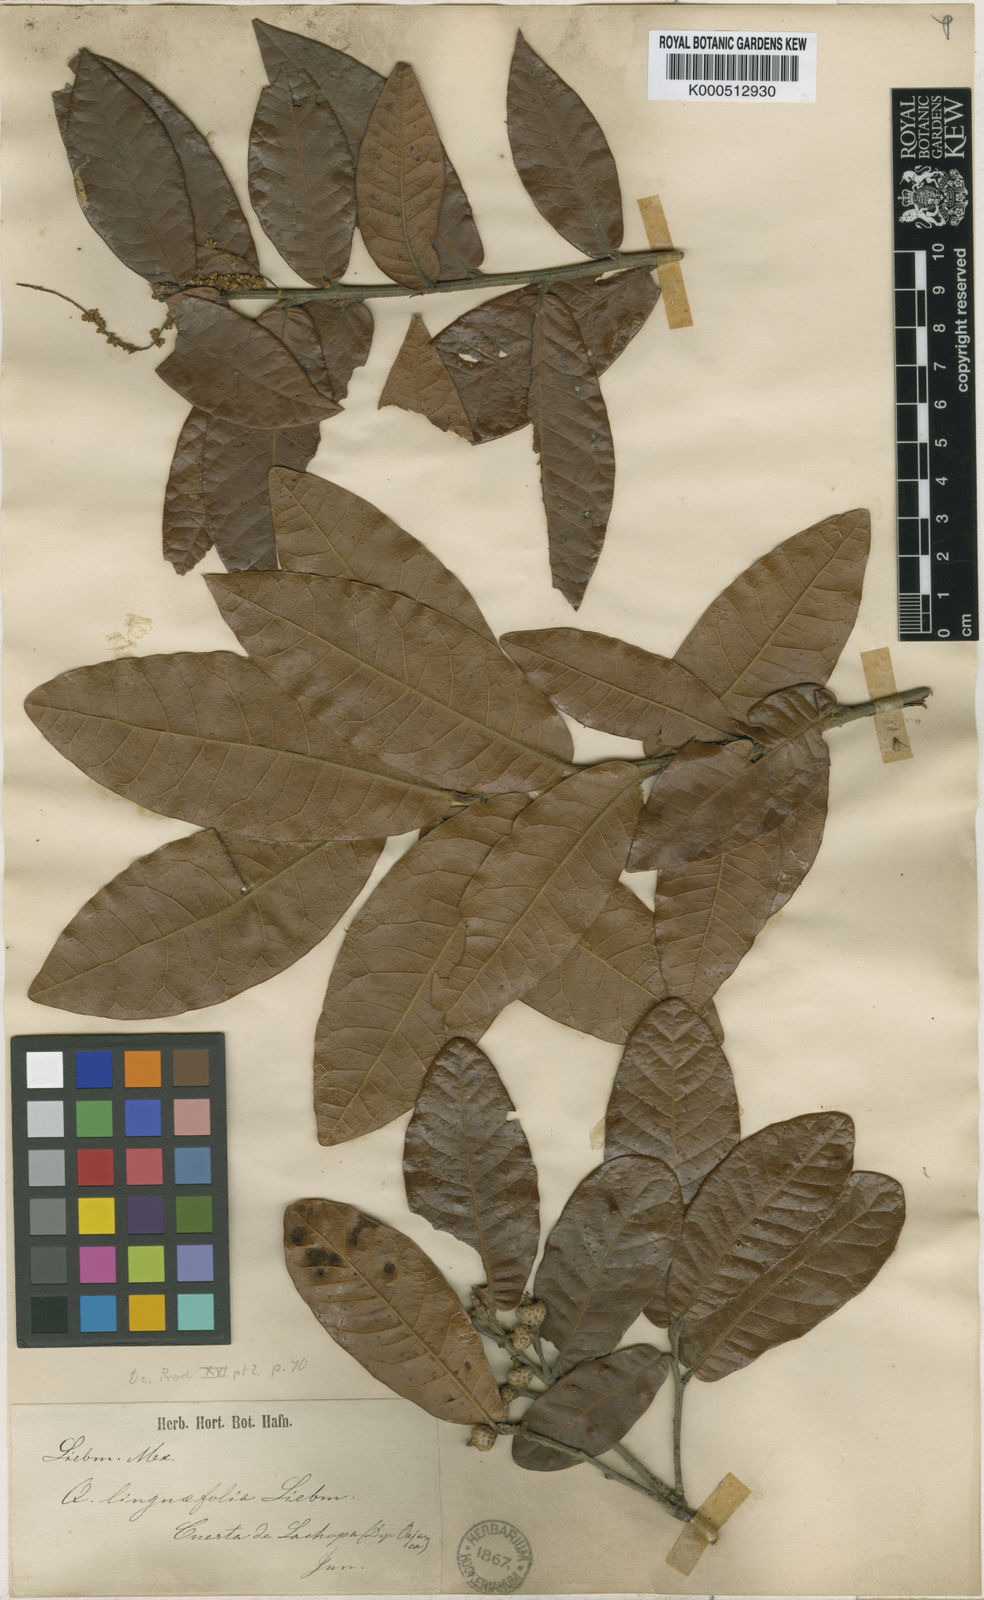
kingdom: Plantae
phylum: Tracheophyta
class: Magnoliopsida
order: Fagales
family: Fagaceae
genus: Quercus
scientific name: Quercus elliptica
